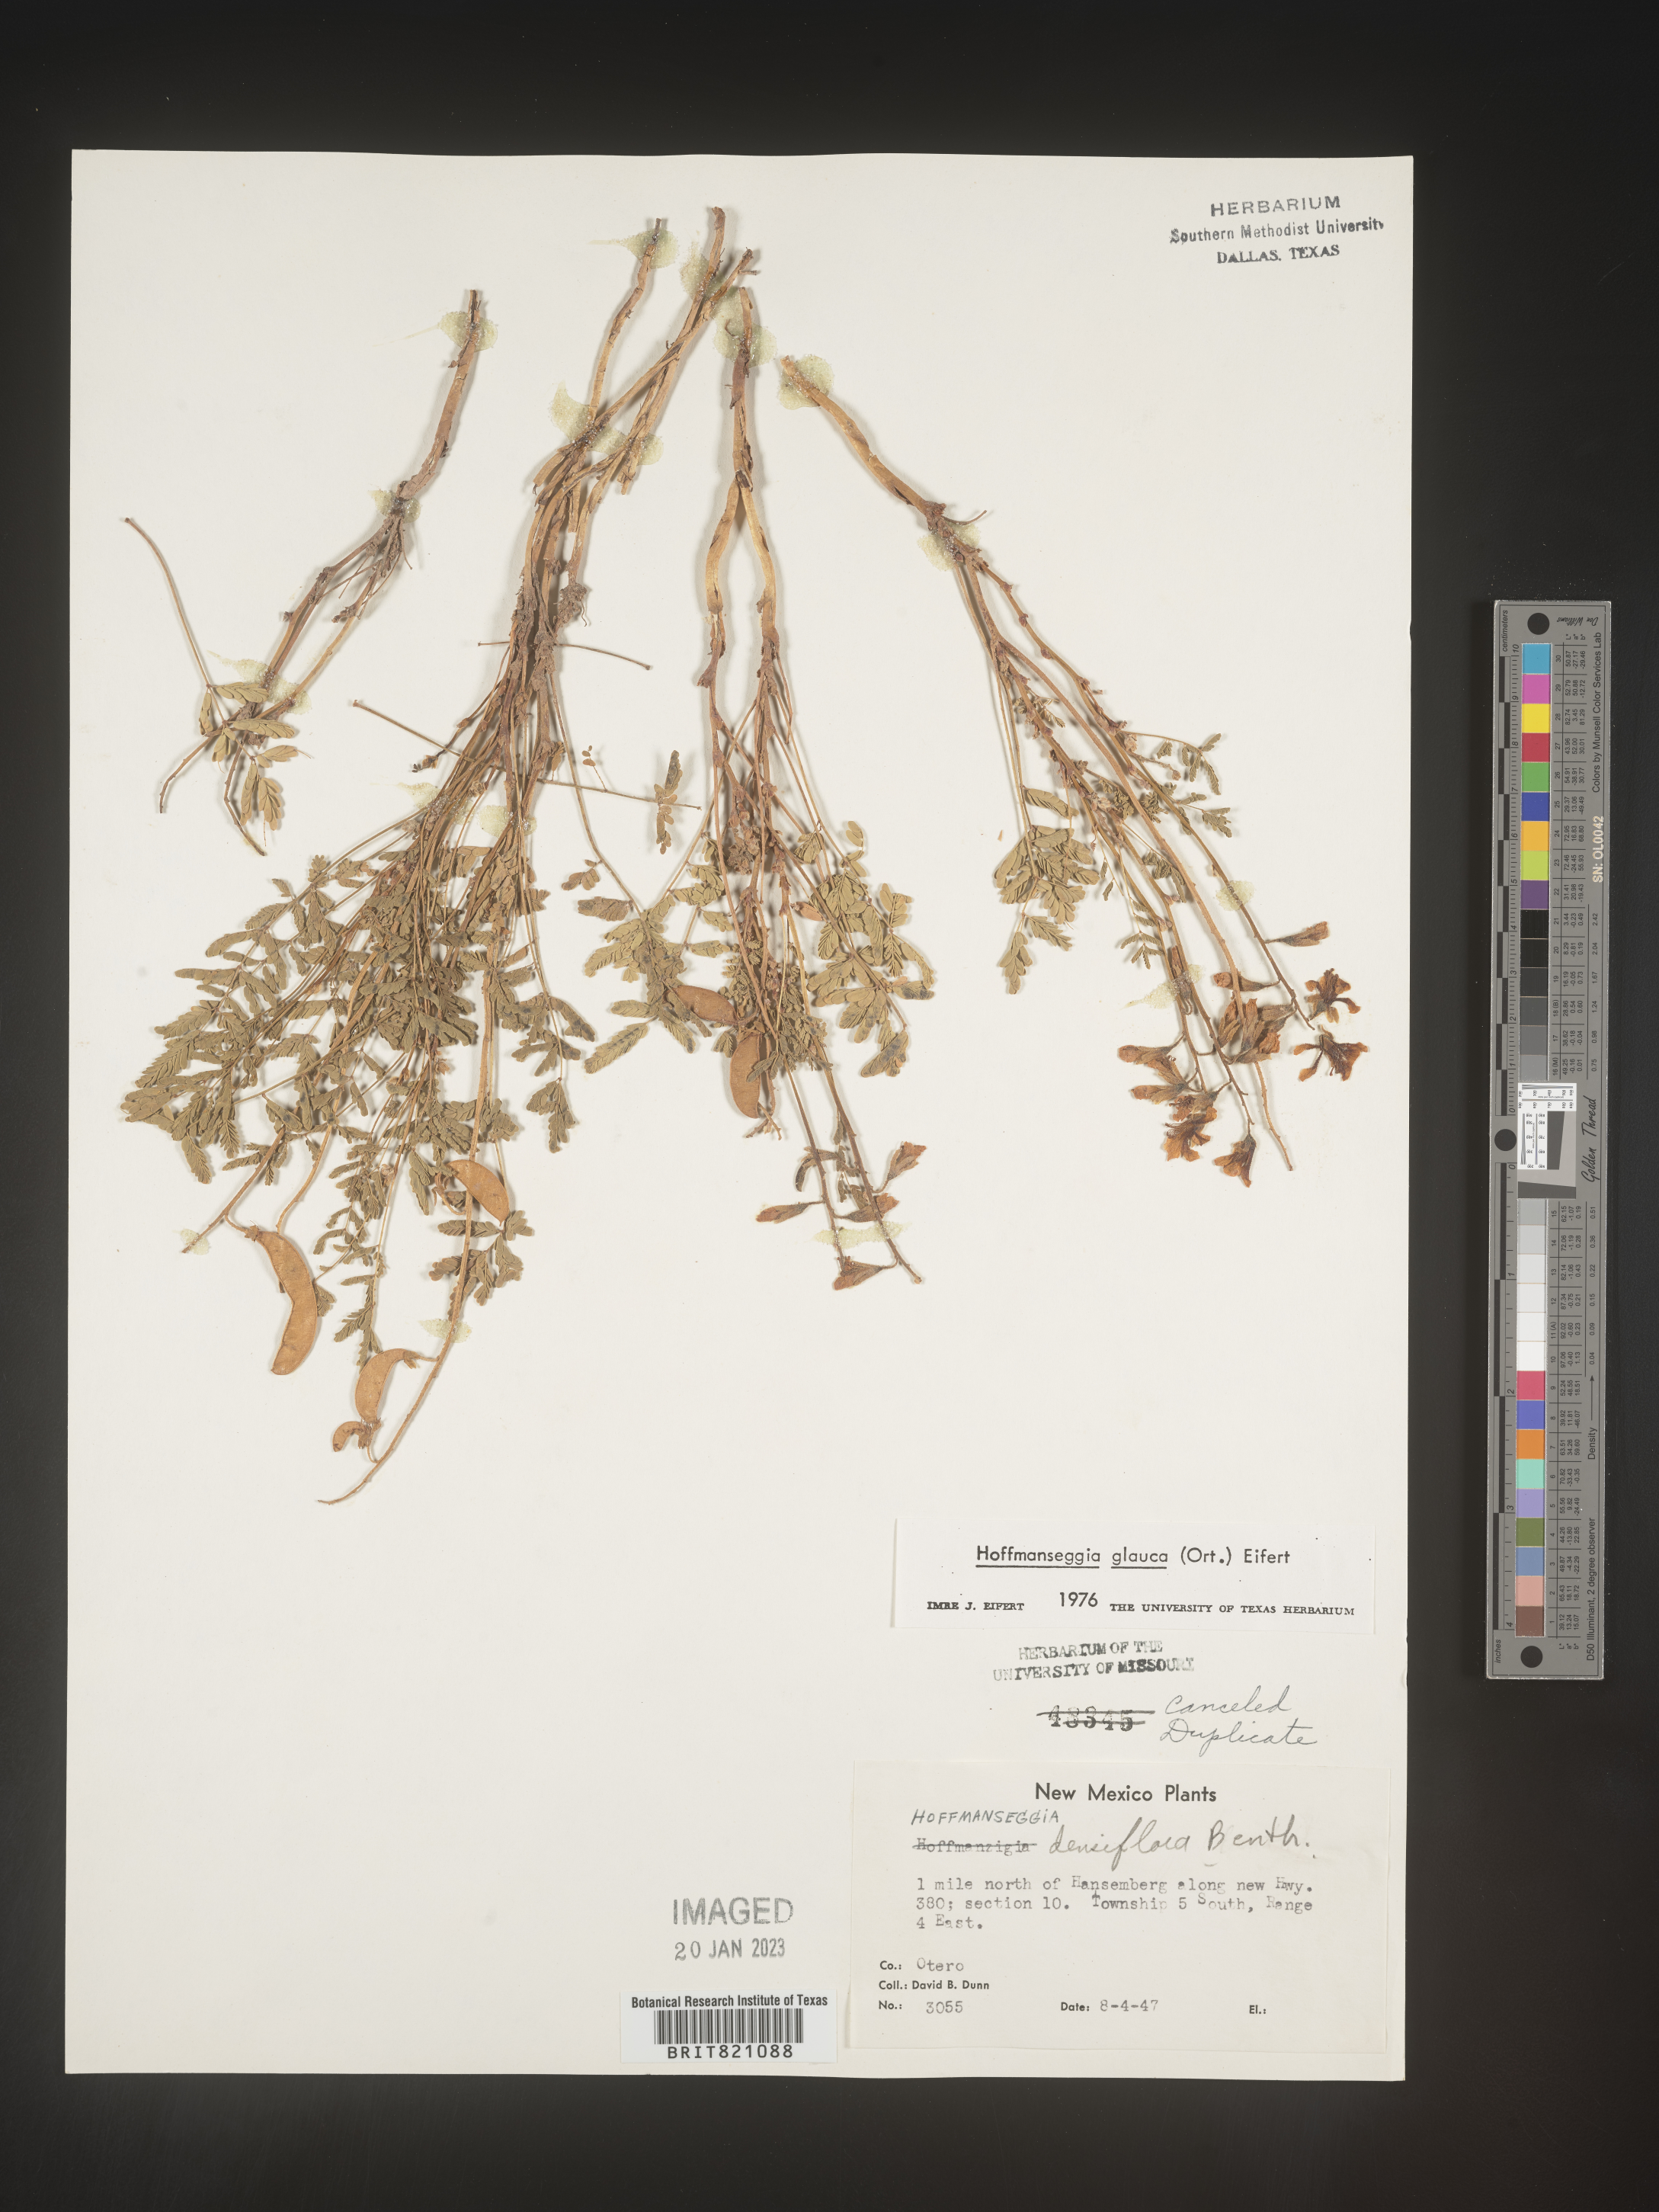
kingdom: Plantae
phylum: Tracheophyta
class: Magnoliopsida
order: Fabales
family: Fabaceae
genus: Hoffmannseggia
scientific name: Hoffmannseggia
